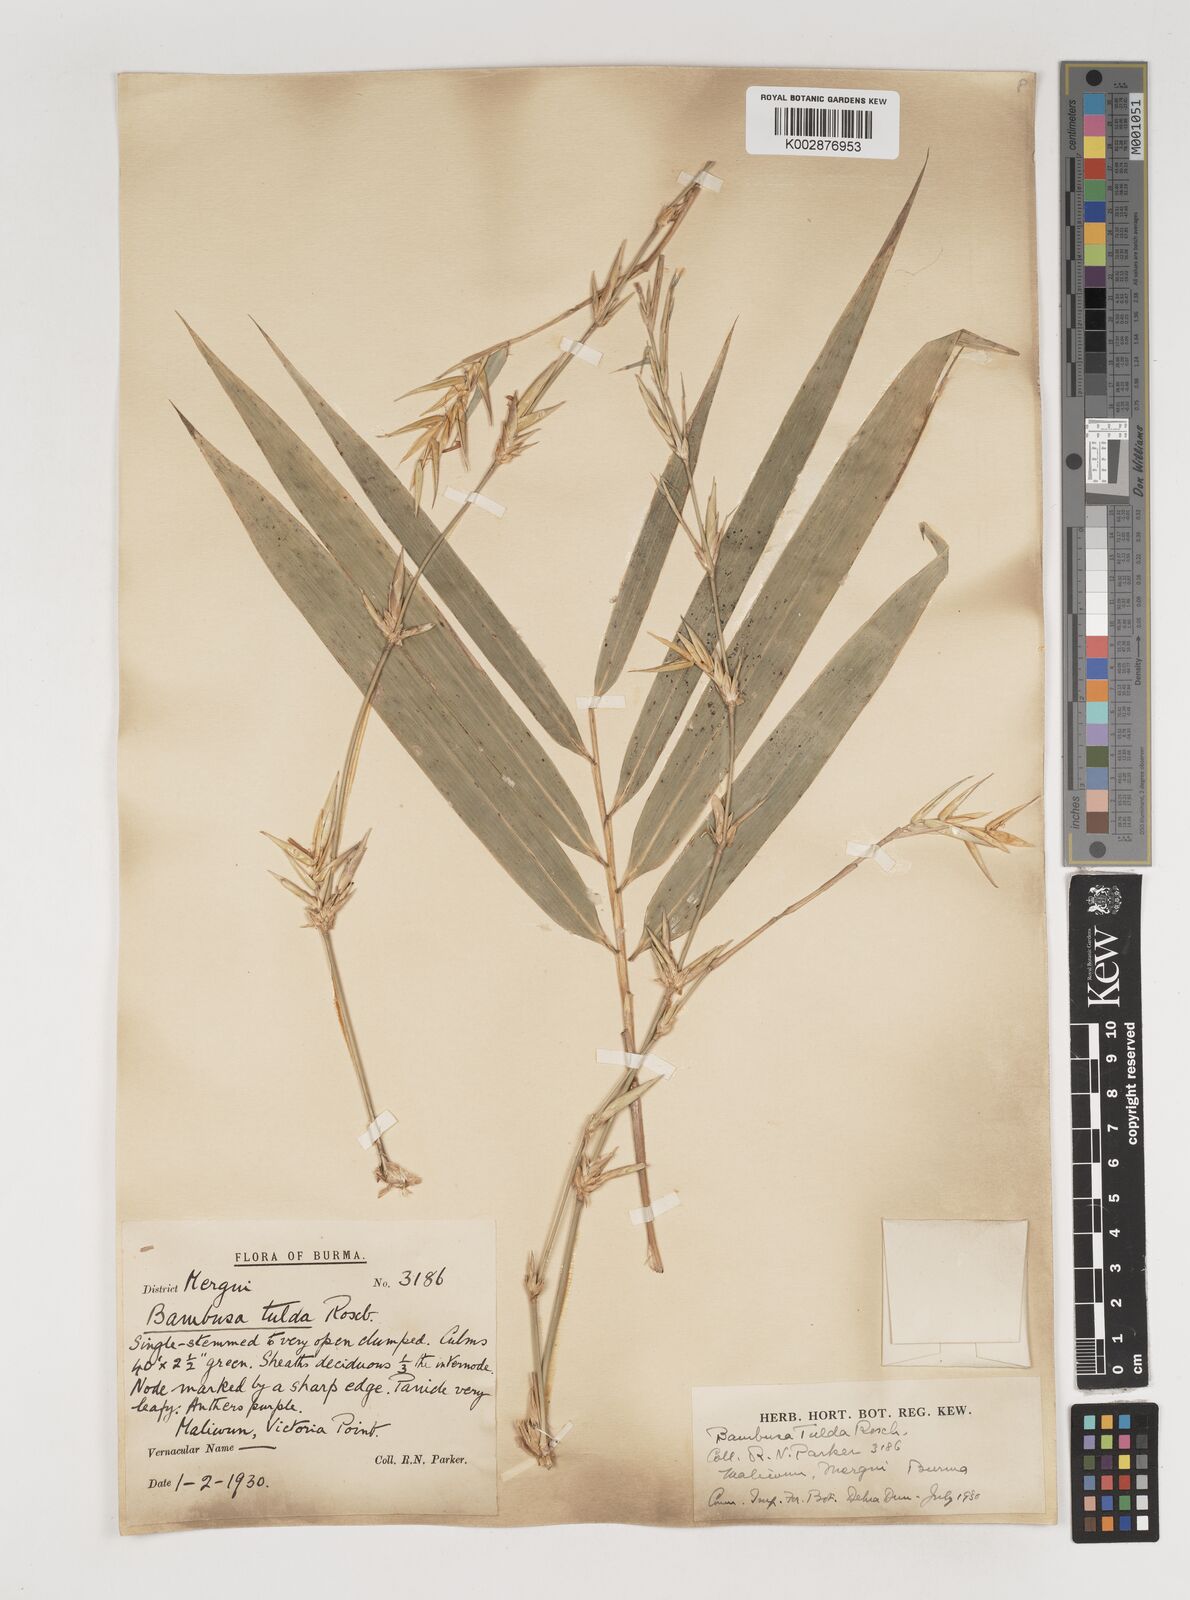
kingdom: Plantae
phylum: Tracheophyta
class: Liliopsida
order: Poales
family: Poaceae
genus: Bambusa
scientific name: Bambusa tulda
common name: Bengal bamboo
